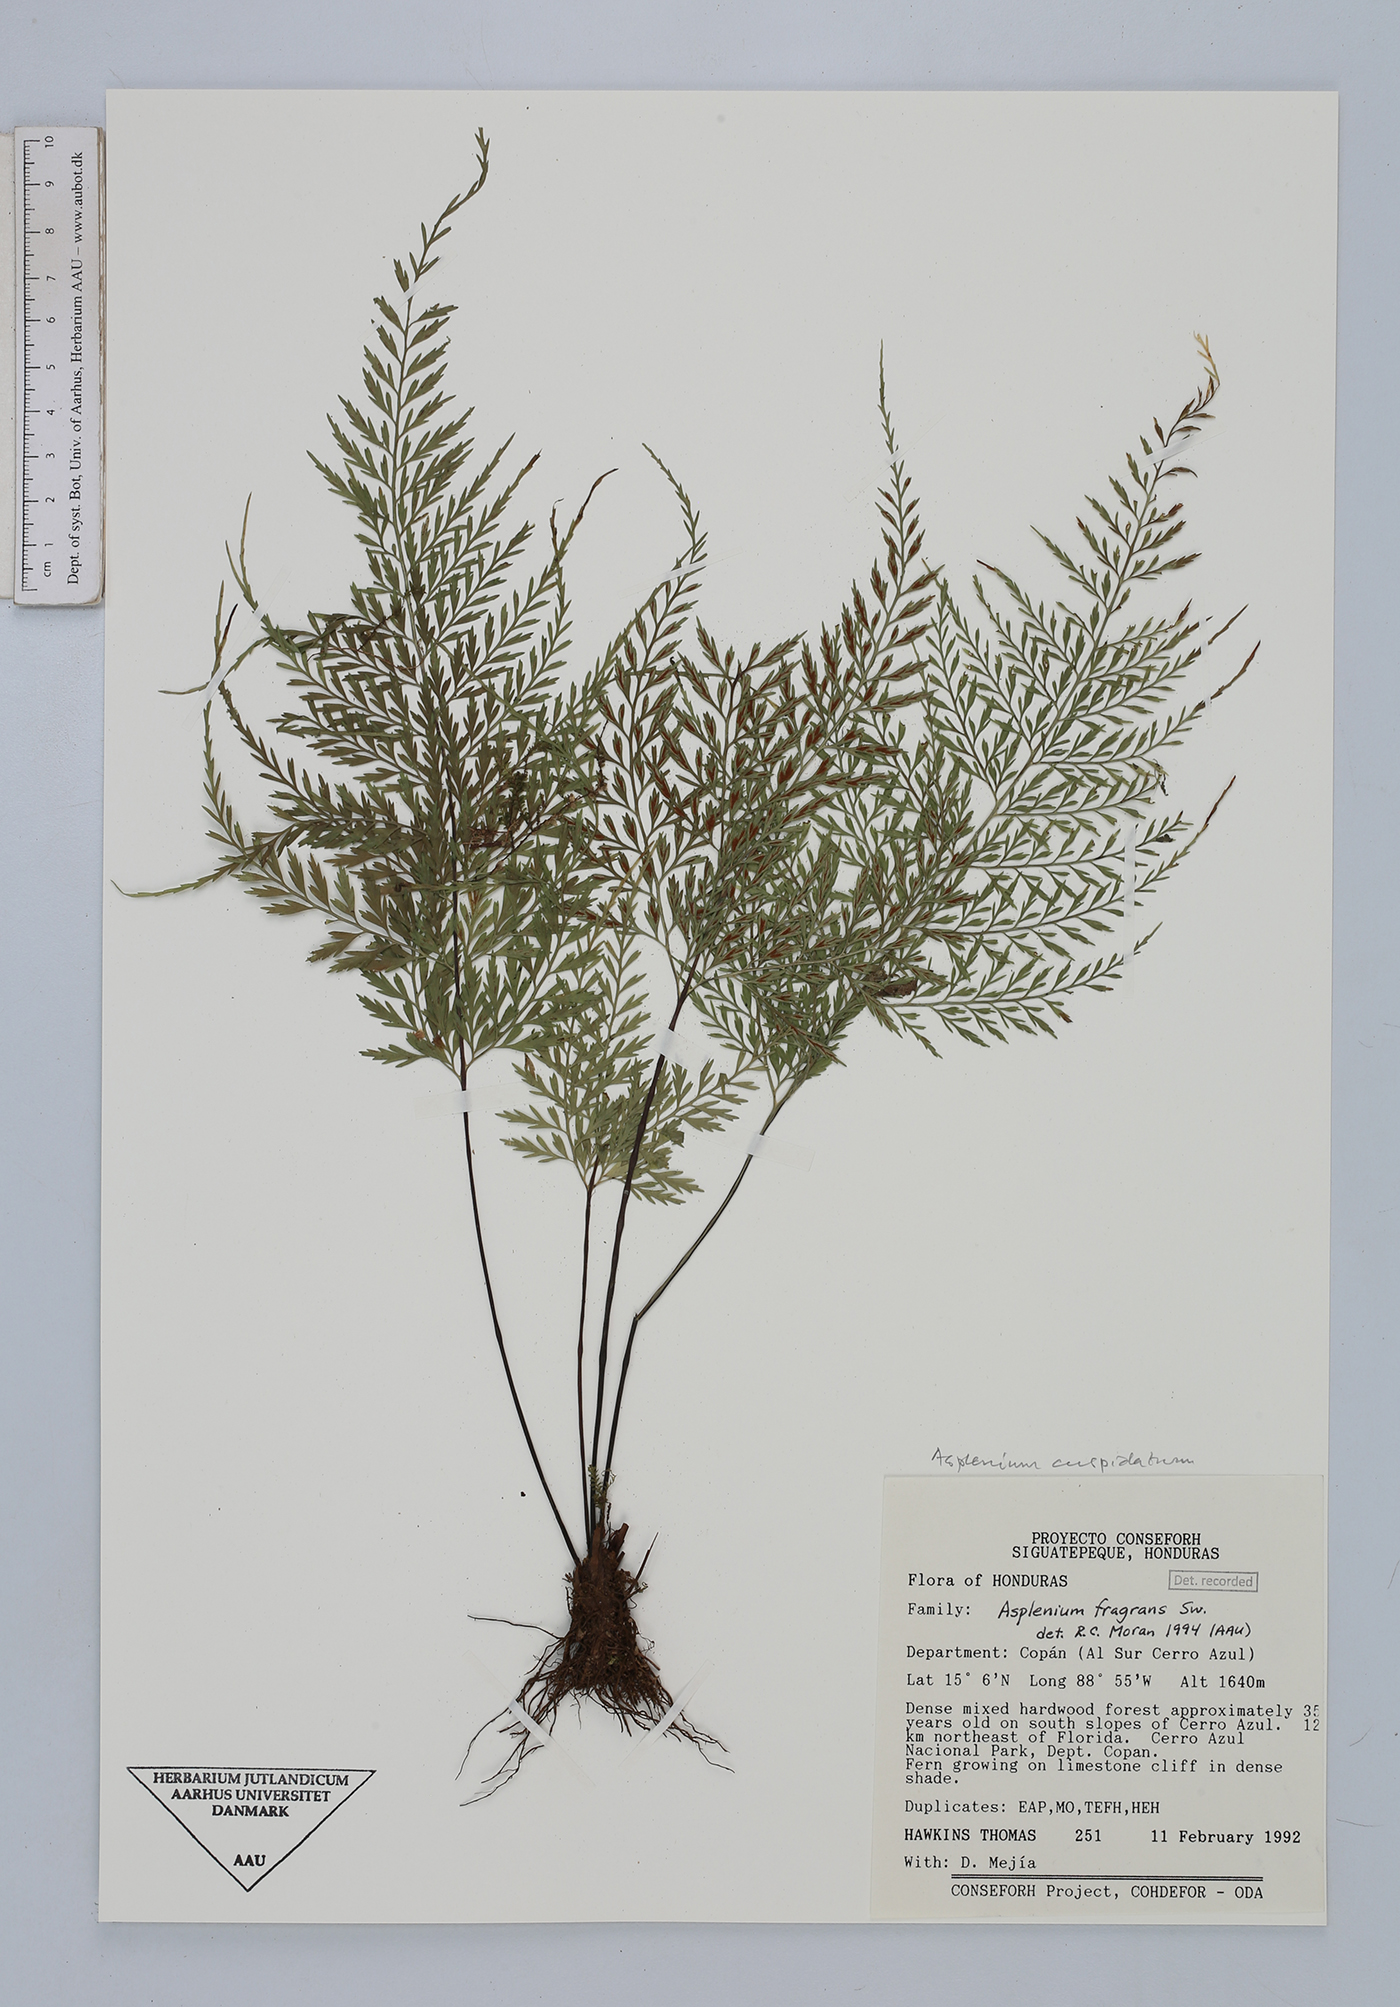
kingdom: Plantae
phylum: Tracheophyta
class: Polypodiopsida
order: Polypodiales
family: Aspleniaceae
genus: Asplenium
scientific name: Asplenium cuspidatum
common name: Eared spleenwort
